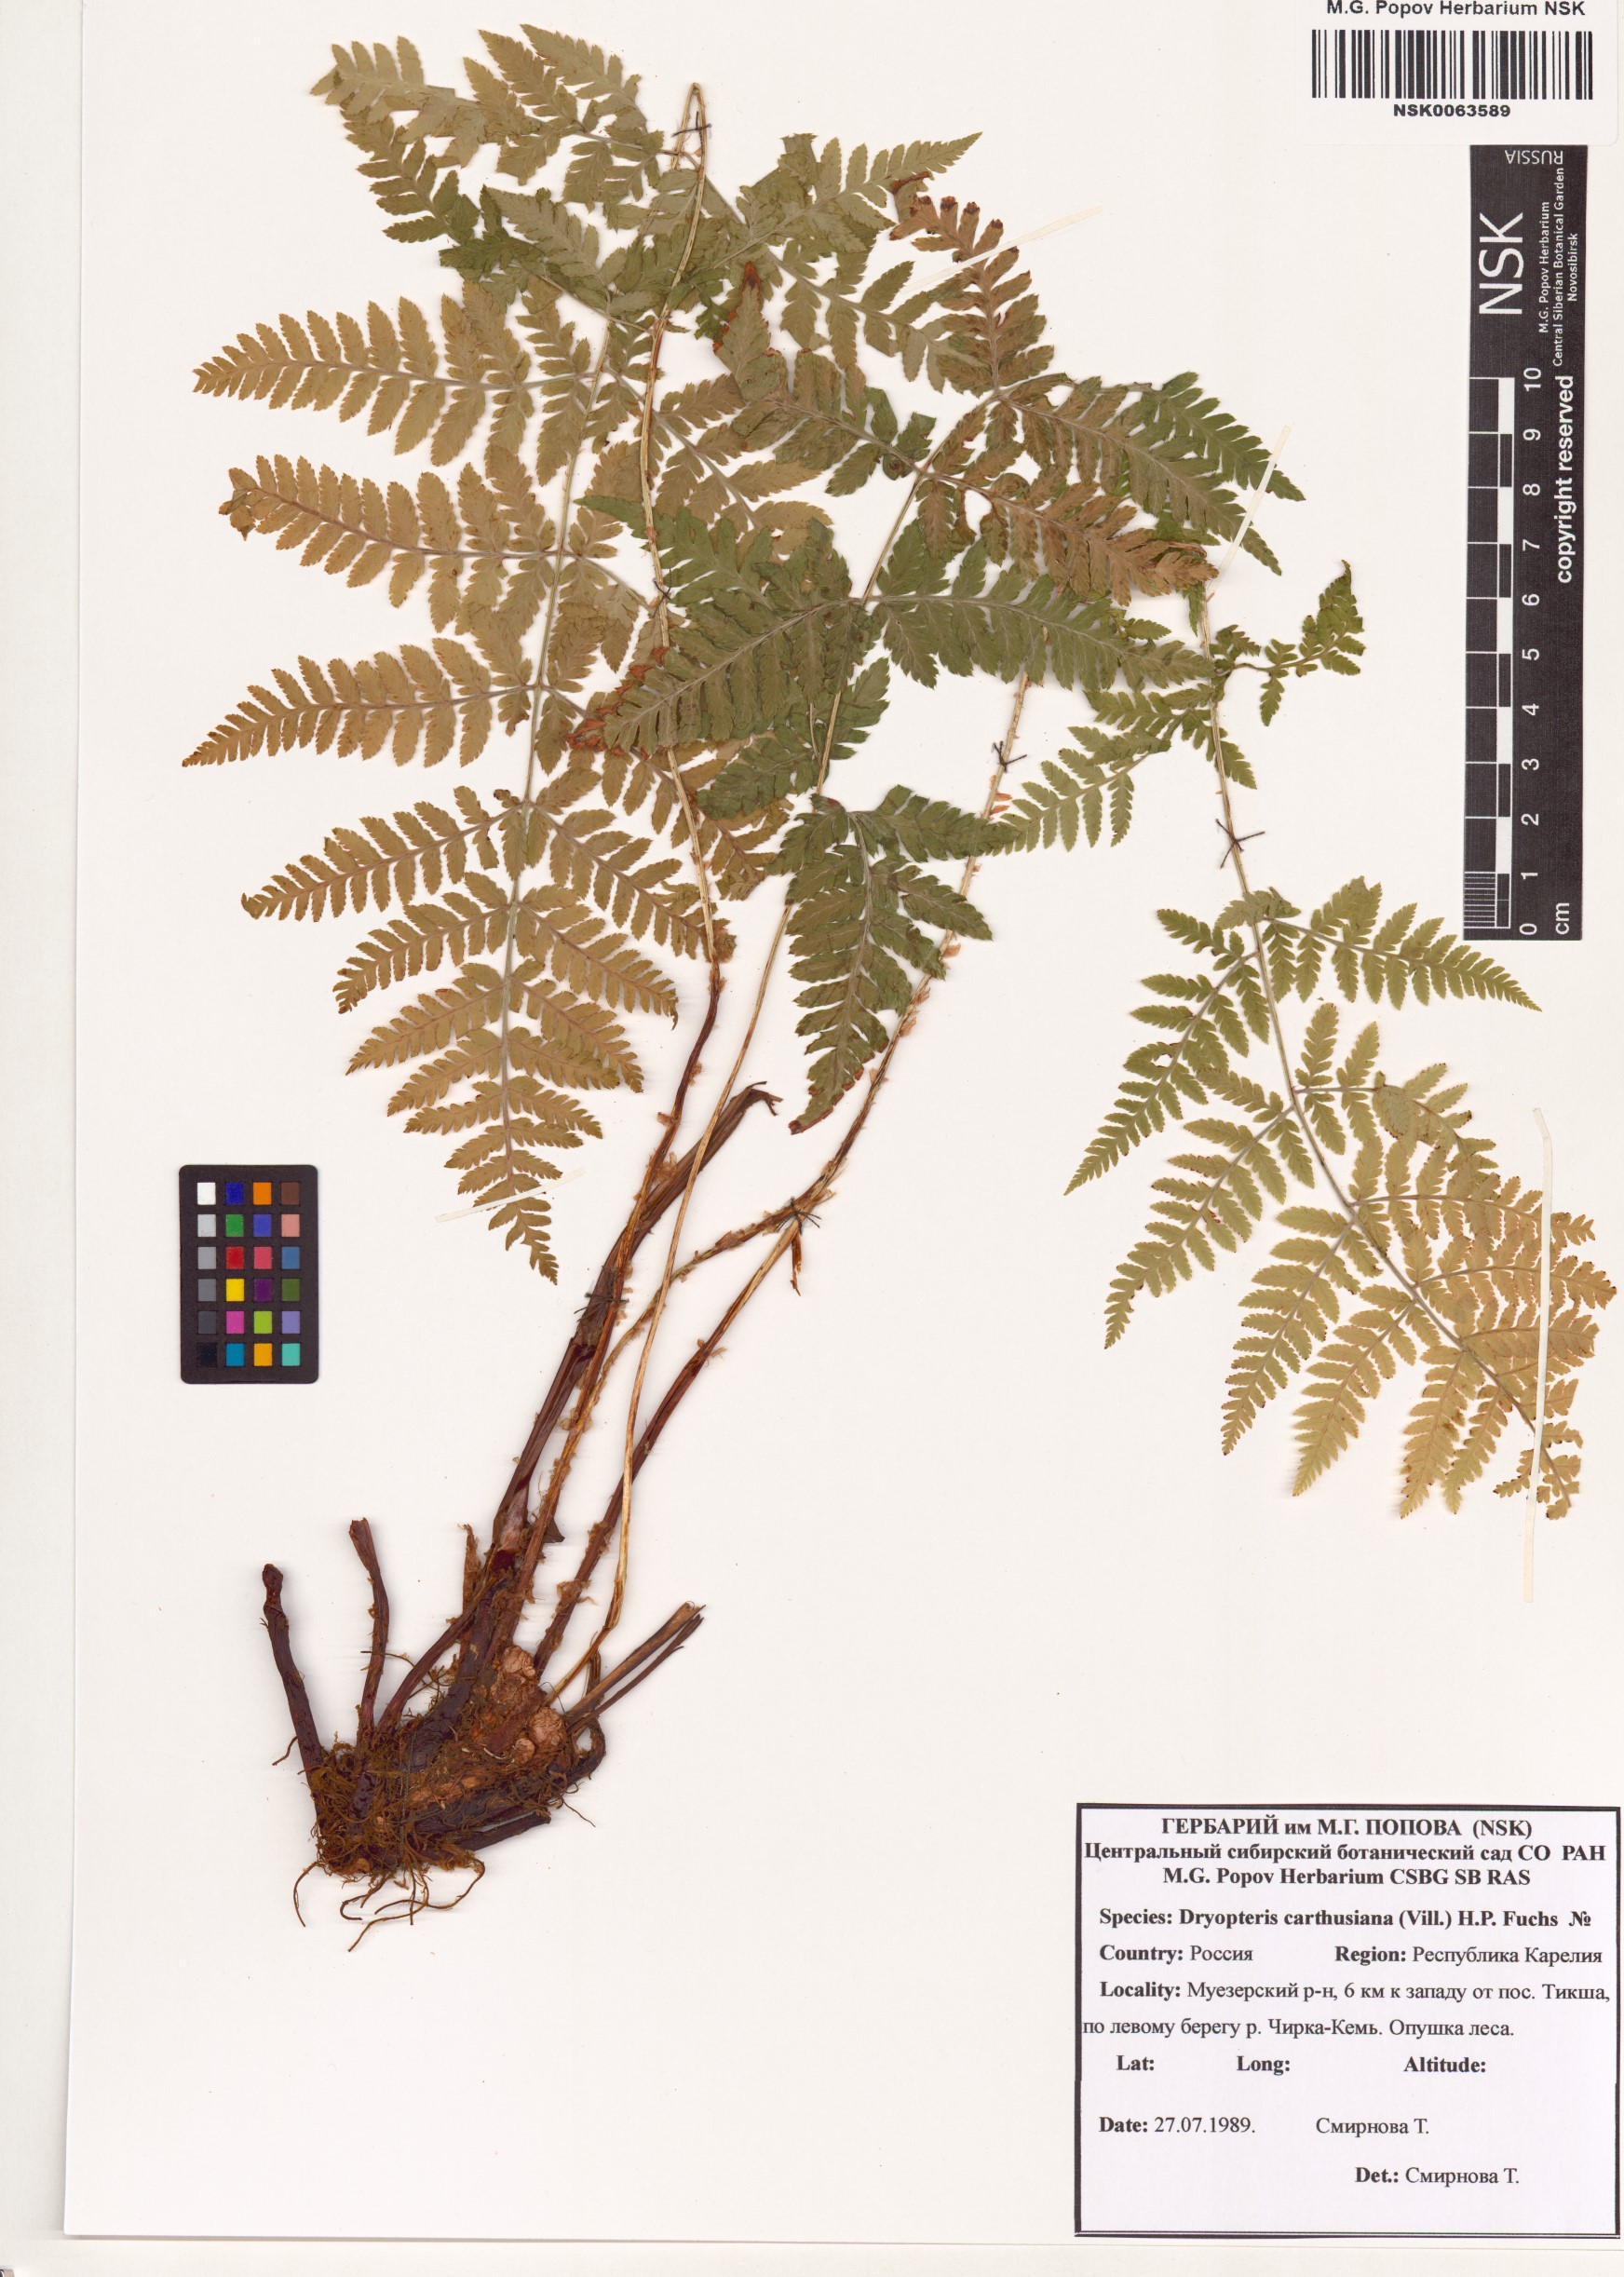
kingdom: Plantae
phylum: Tracheophyta
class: Polypodiopsida
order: Polypodiales
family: Dryopteridaceae
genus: Dryopteris
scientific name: Dryopteris carthusiana
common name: Narrow buckler-fern
